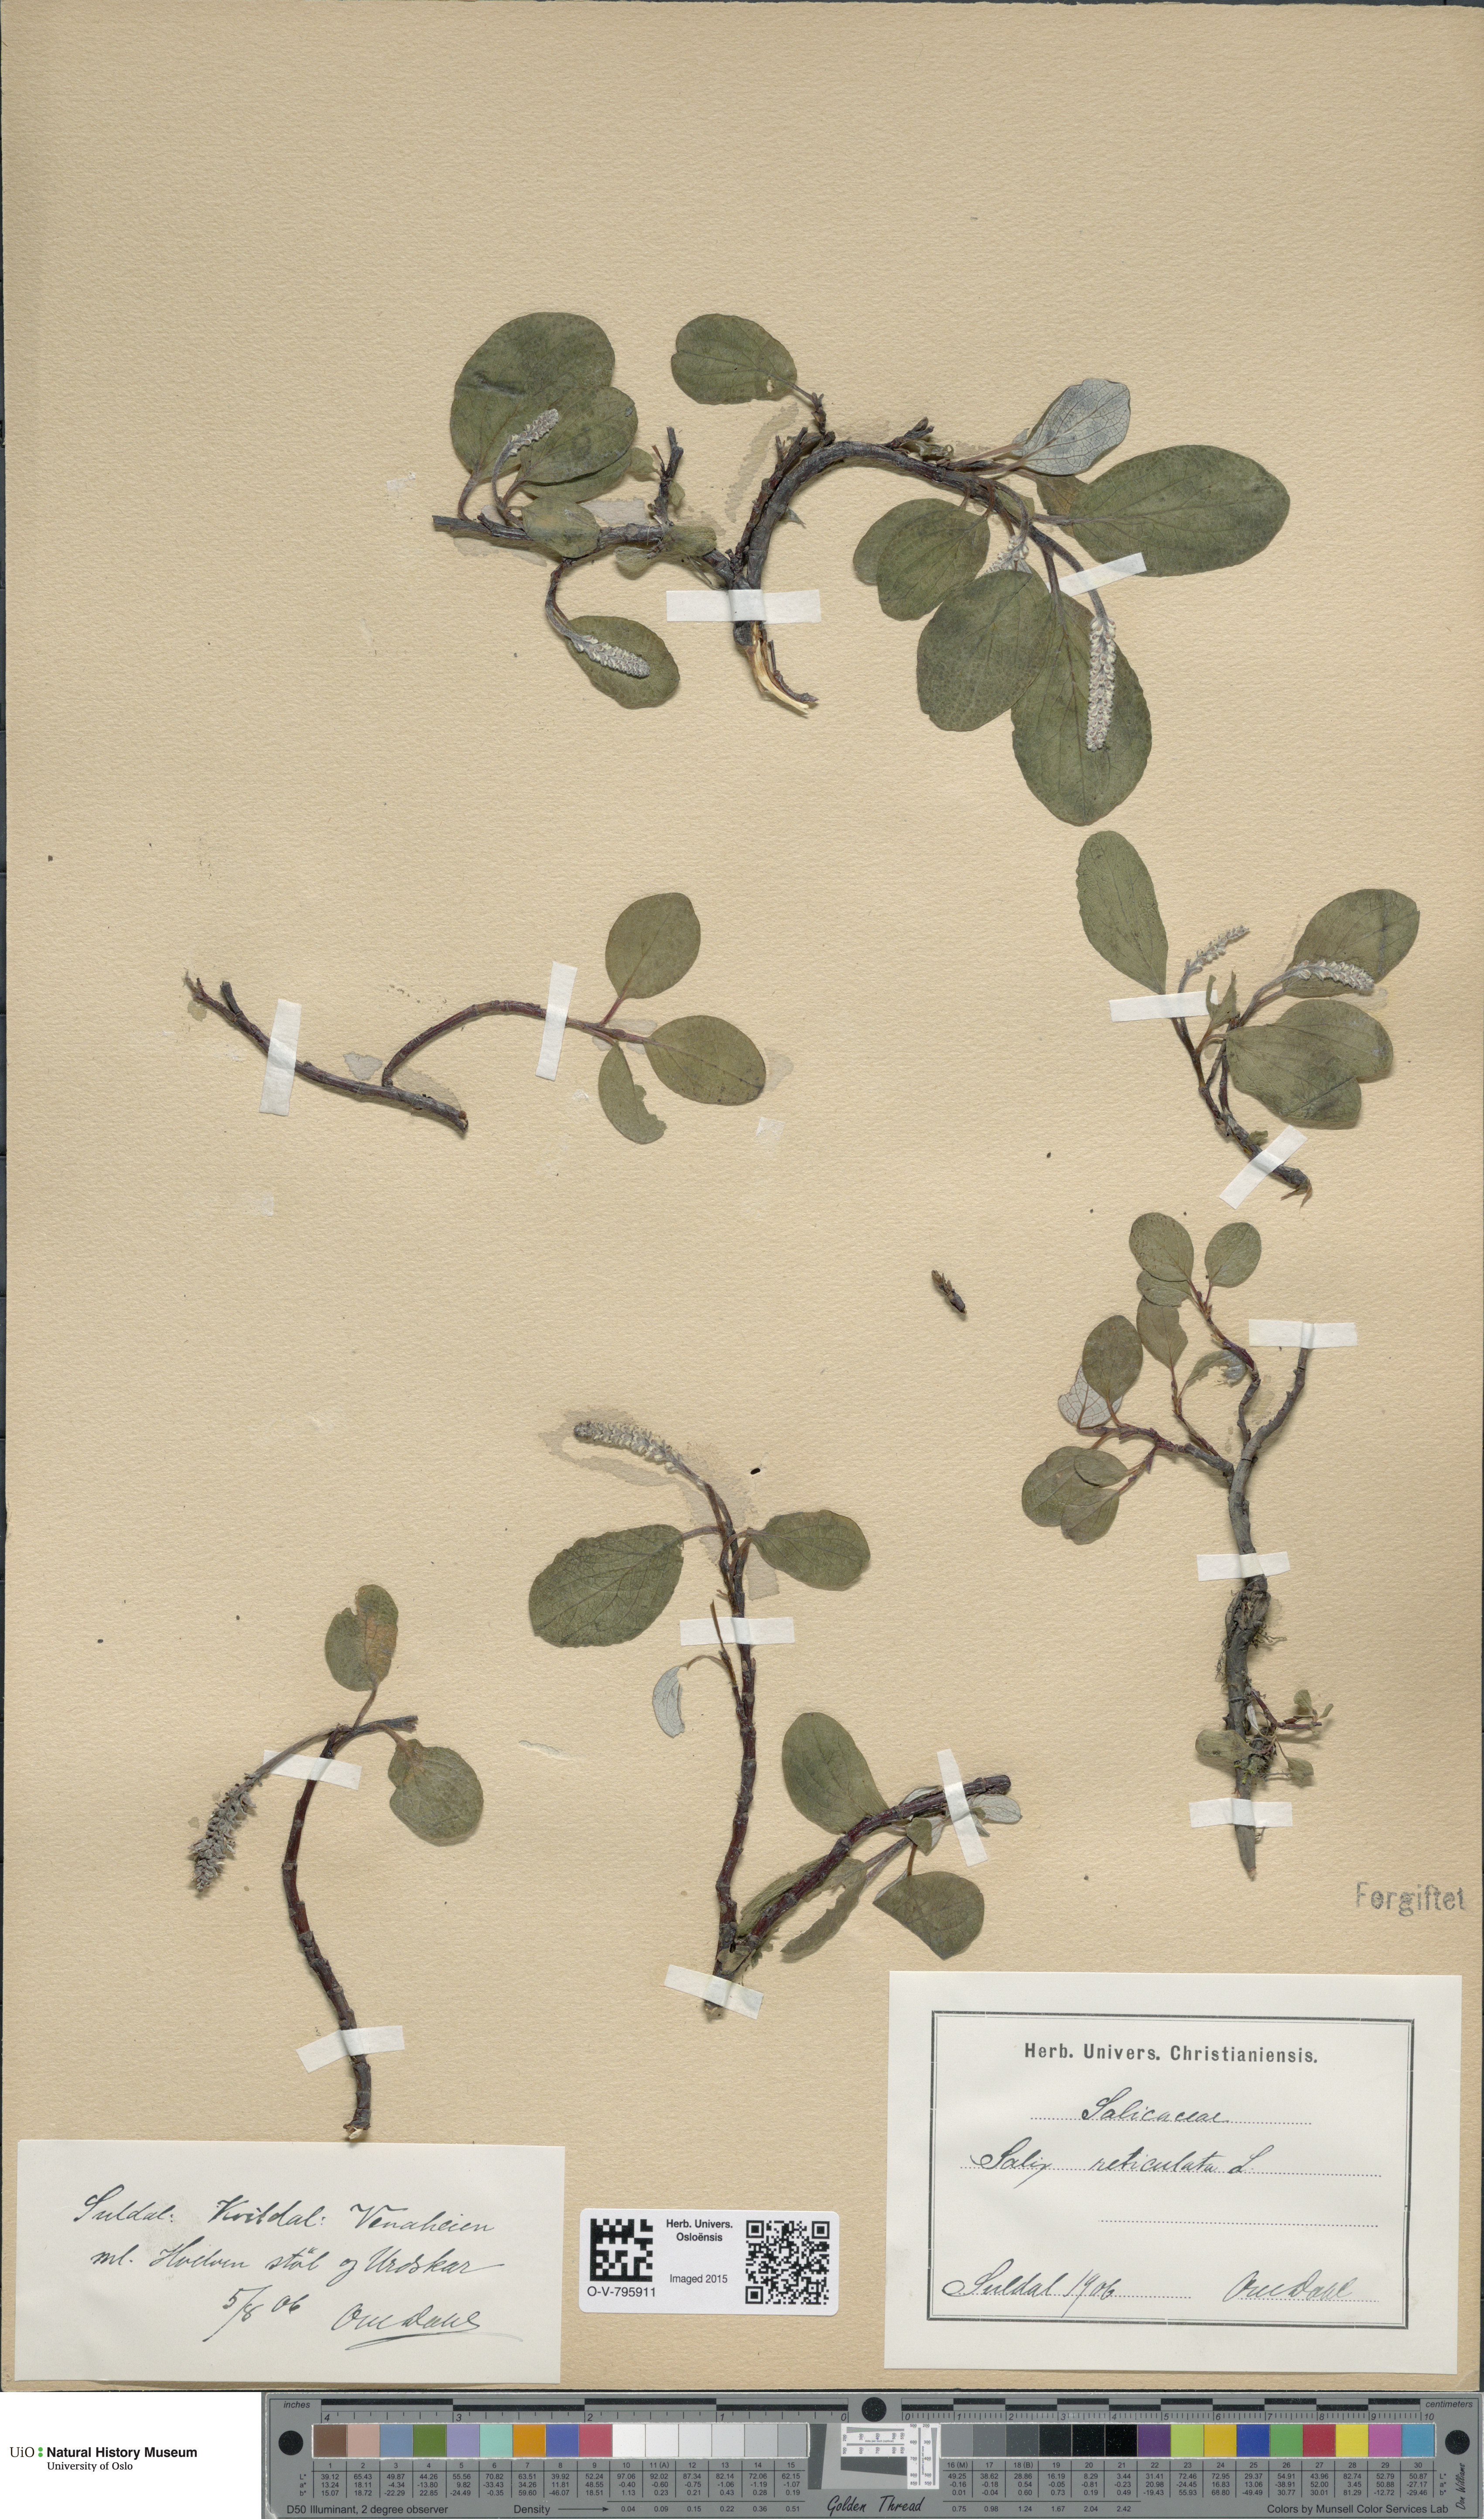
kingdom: Plantae
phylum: Tracheophyta
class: Magnoliopsida
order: Malpighiales
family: Salicaceae
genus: Salix
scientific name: Salix reticulata
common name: Net-leaved willow
